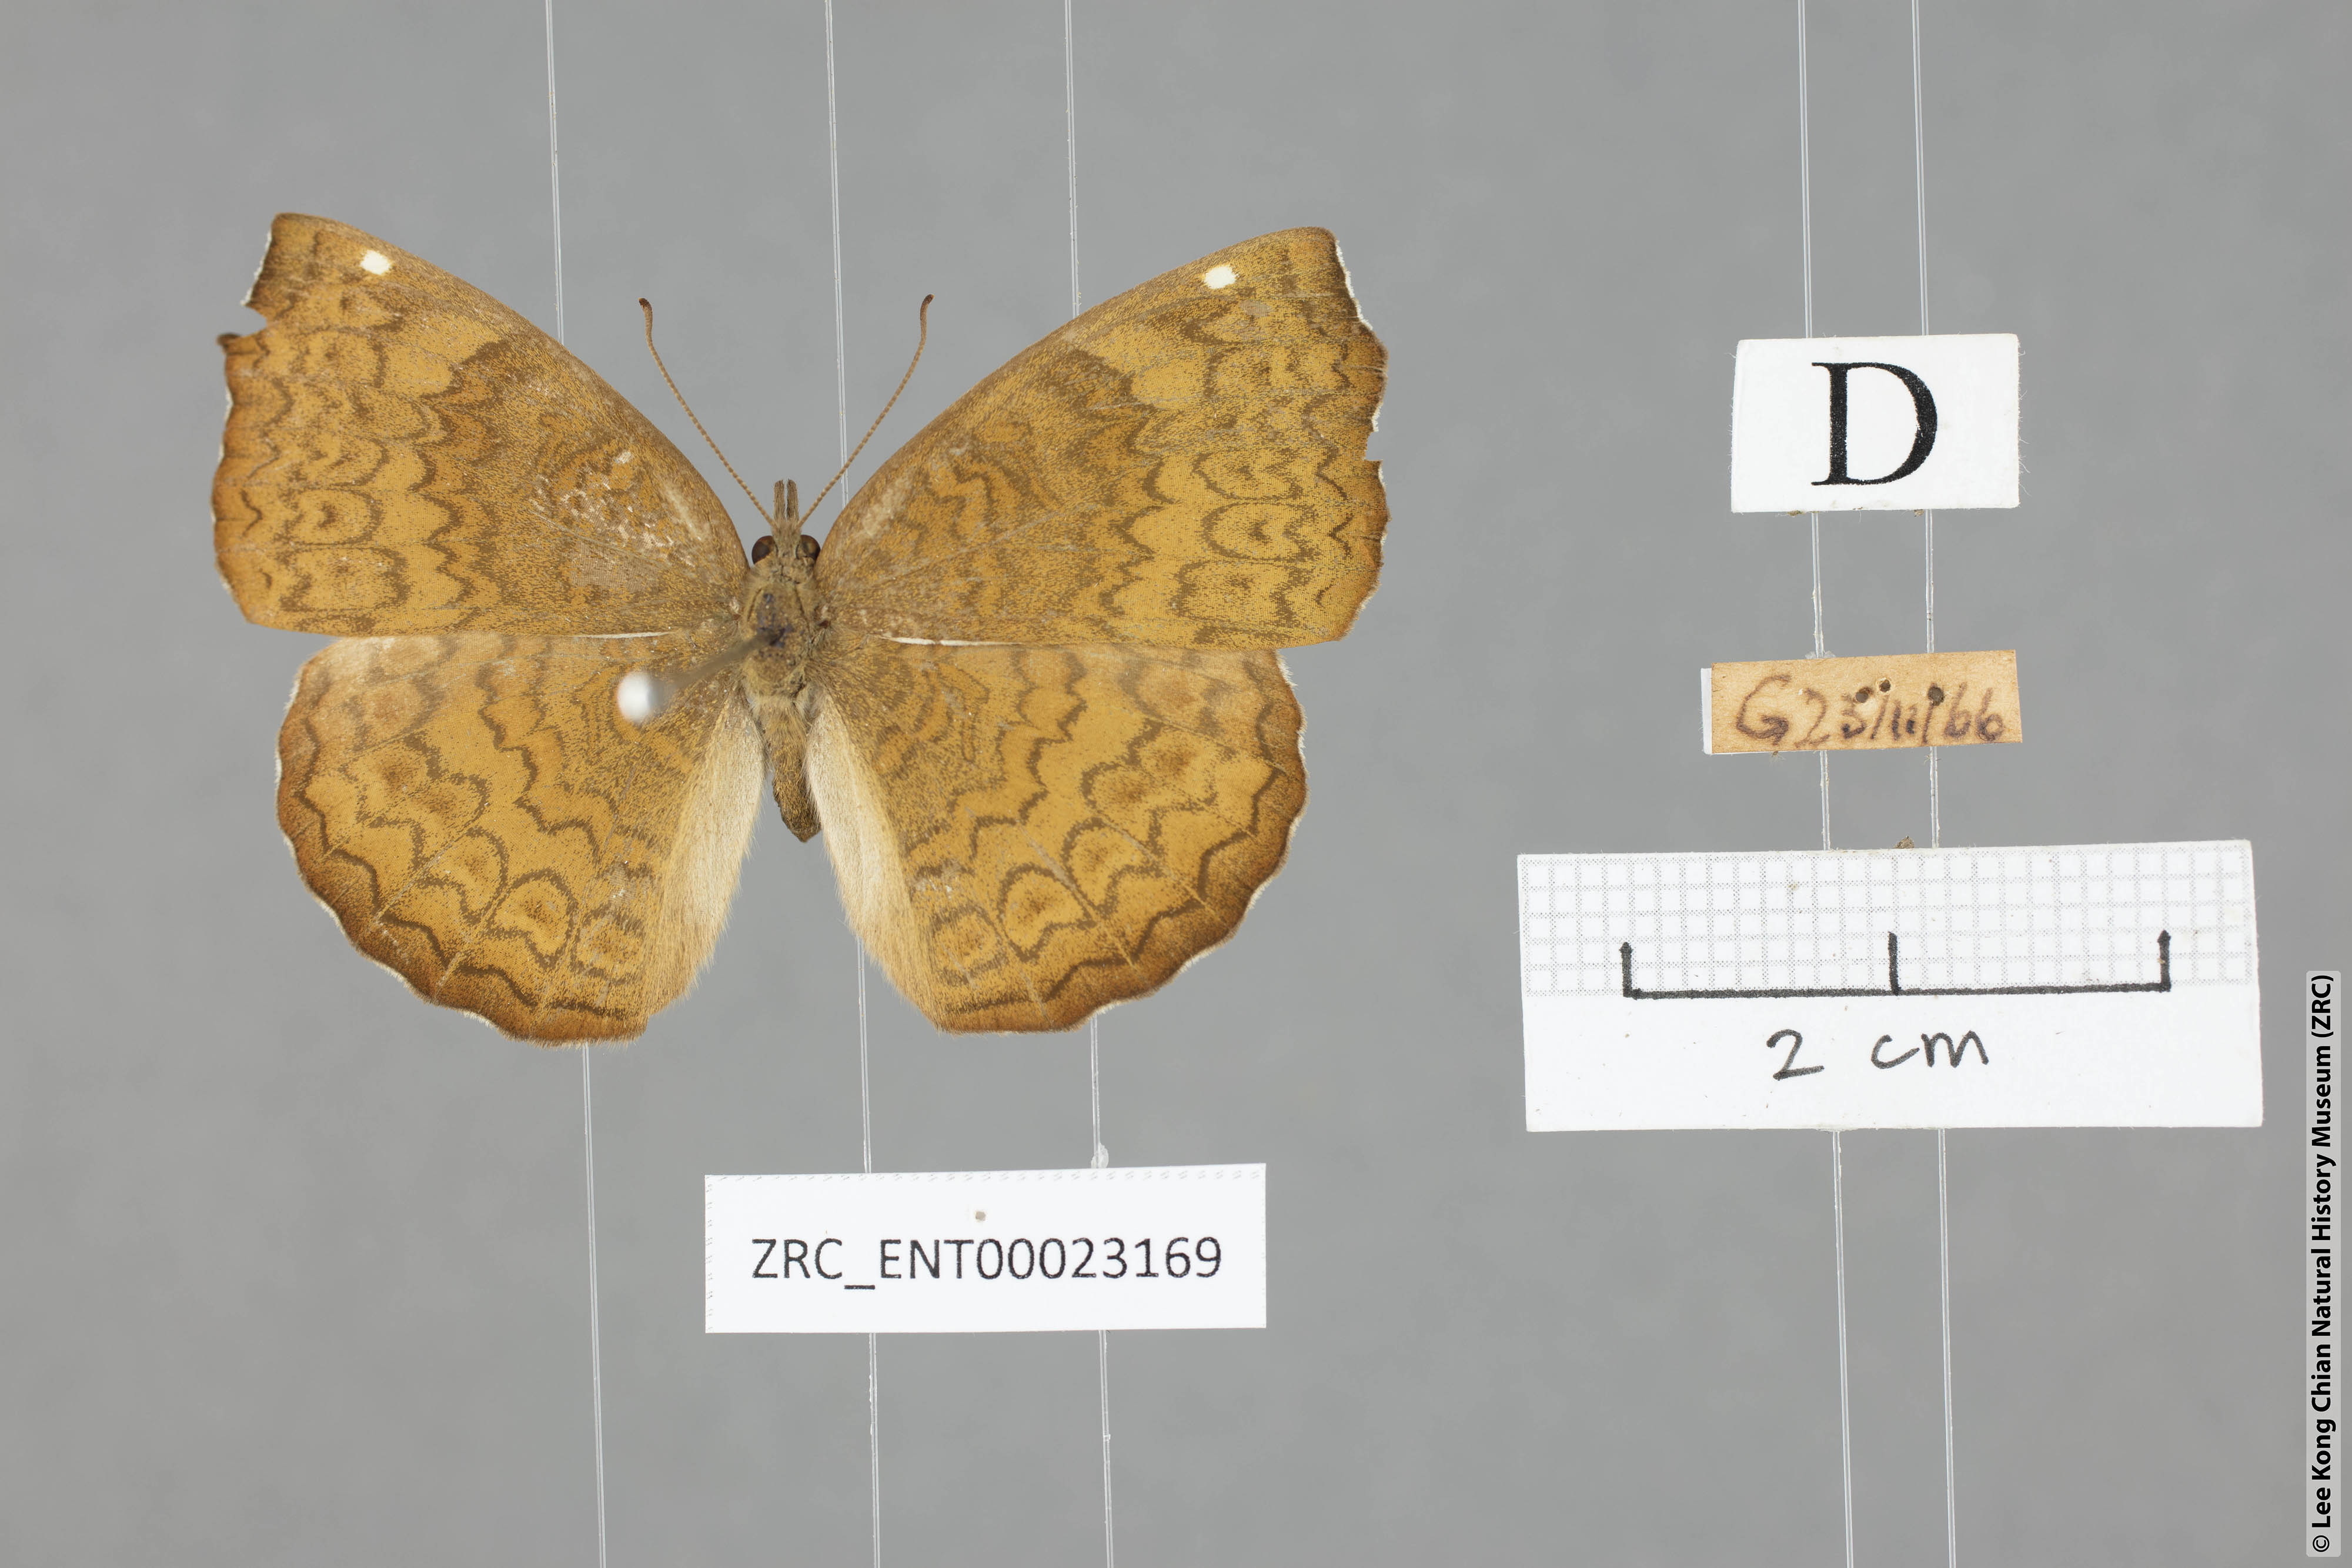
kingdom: Animalia
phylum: Arthropoda
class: Insecta
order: Lepidoptera
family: Nymphalidae
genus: Ariadne
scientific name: Ariadne merione
